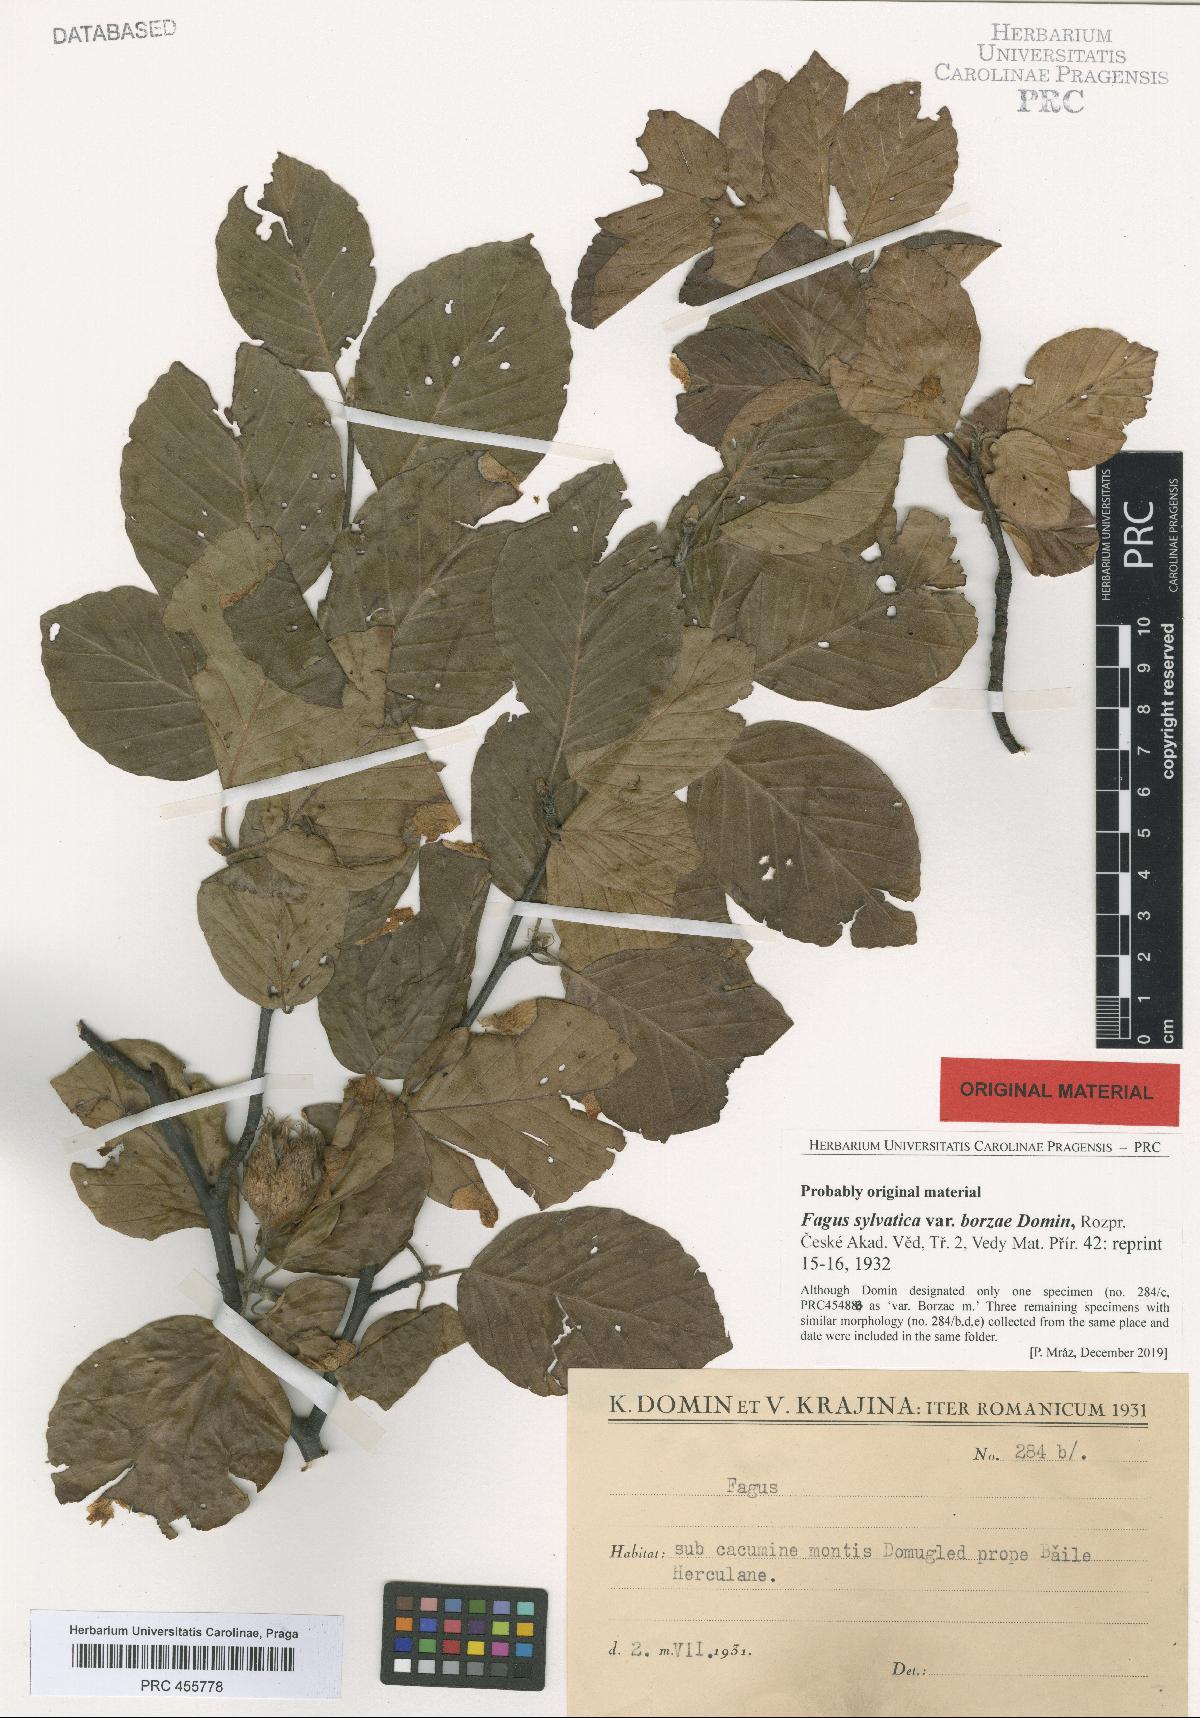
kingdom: Plantae
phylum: Tracheophyta
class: Magnoliopsida
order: Fagales
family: Fagaceae
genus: Fagus
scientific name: Fagus sylvatica
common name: Beech
